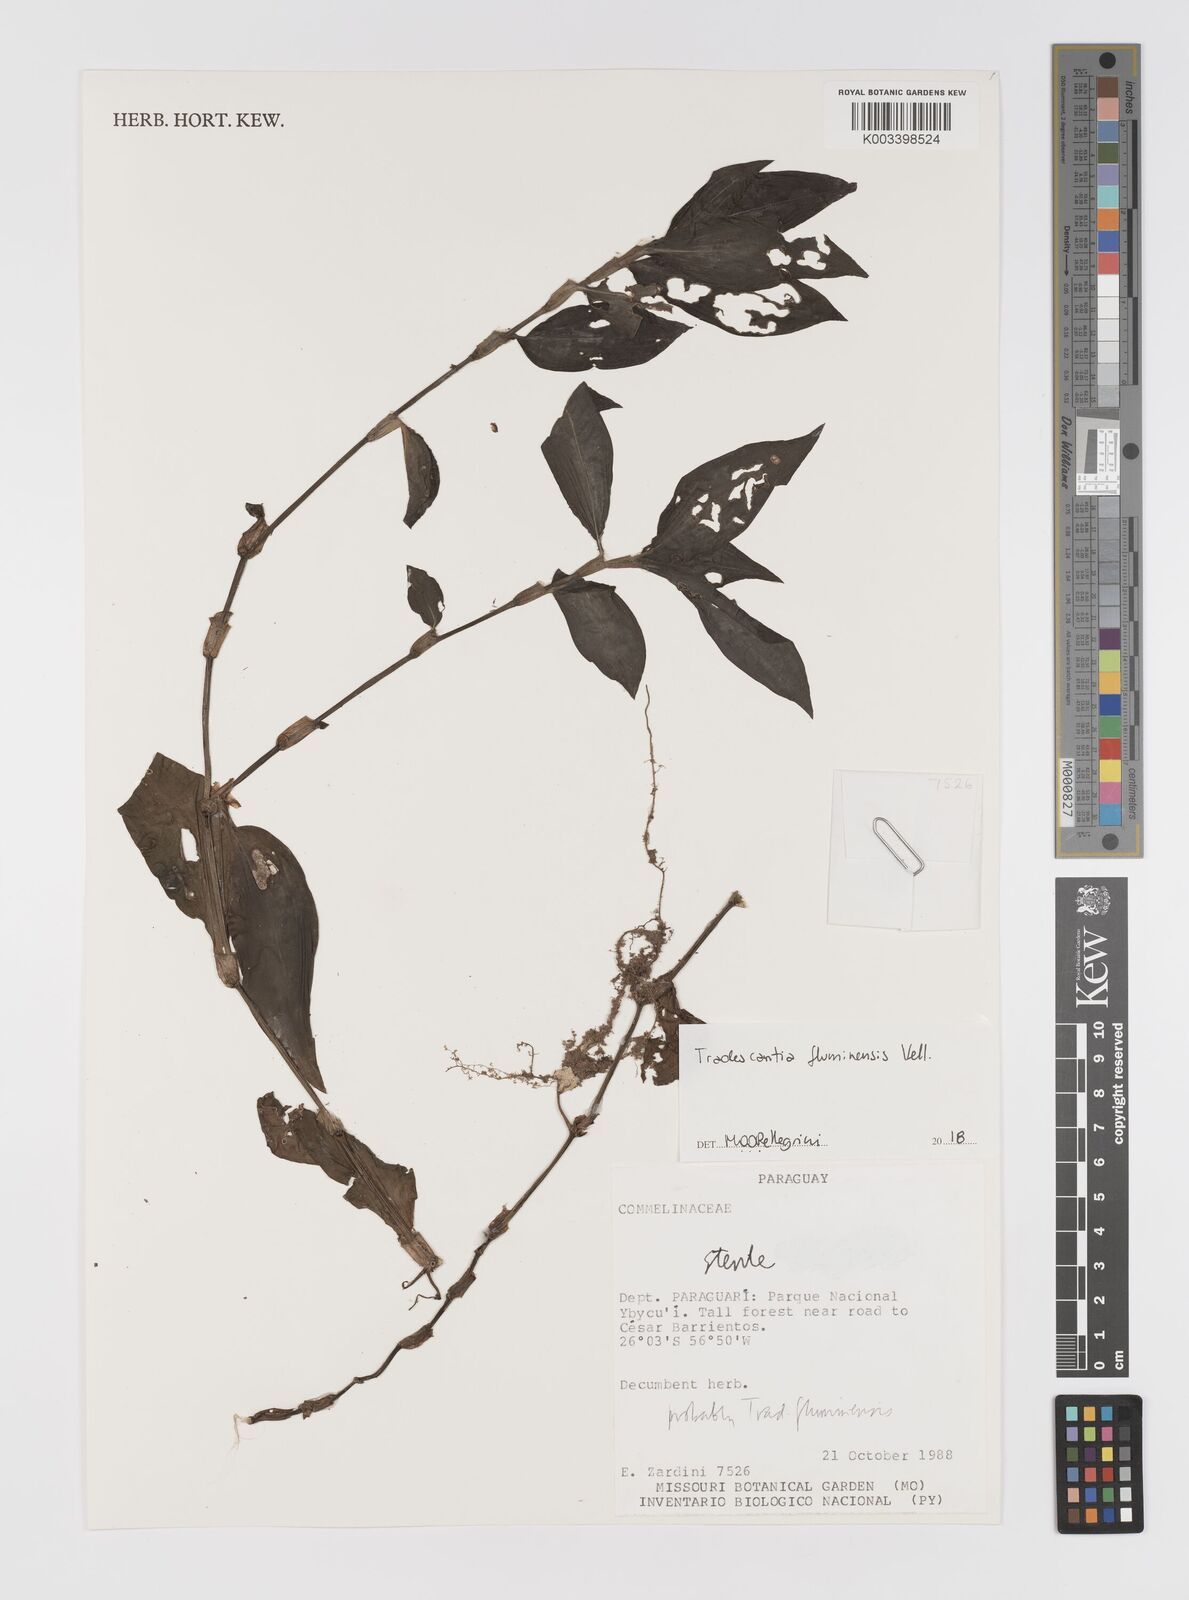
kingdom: Plantae
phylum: Tracheophyta
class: Liliopsida
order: Commelinales
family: Commelinaceae
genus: Tradescantia
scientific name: Tradescantia fluminensis
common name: Wandering-jew
